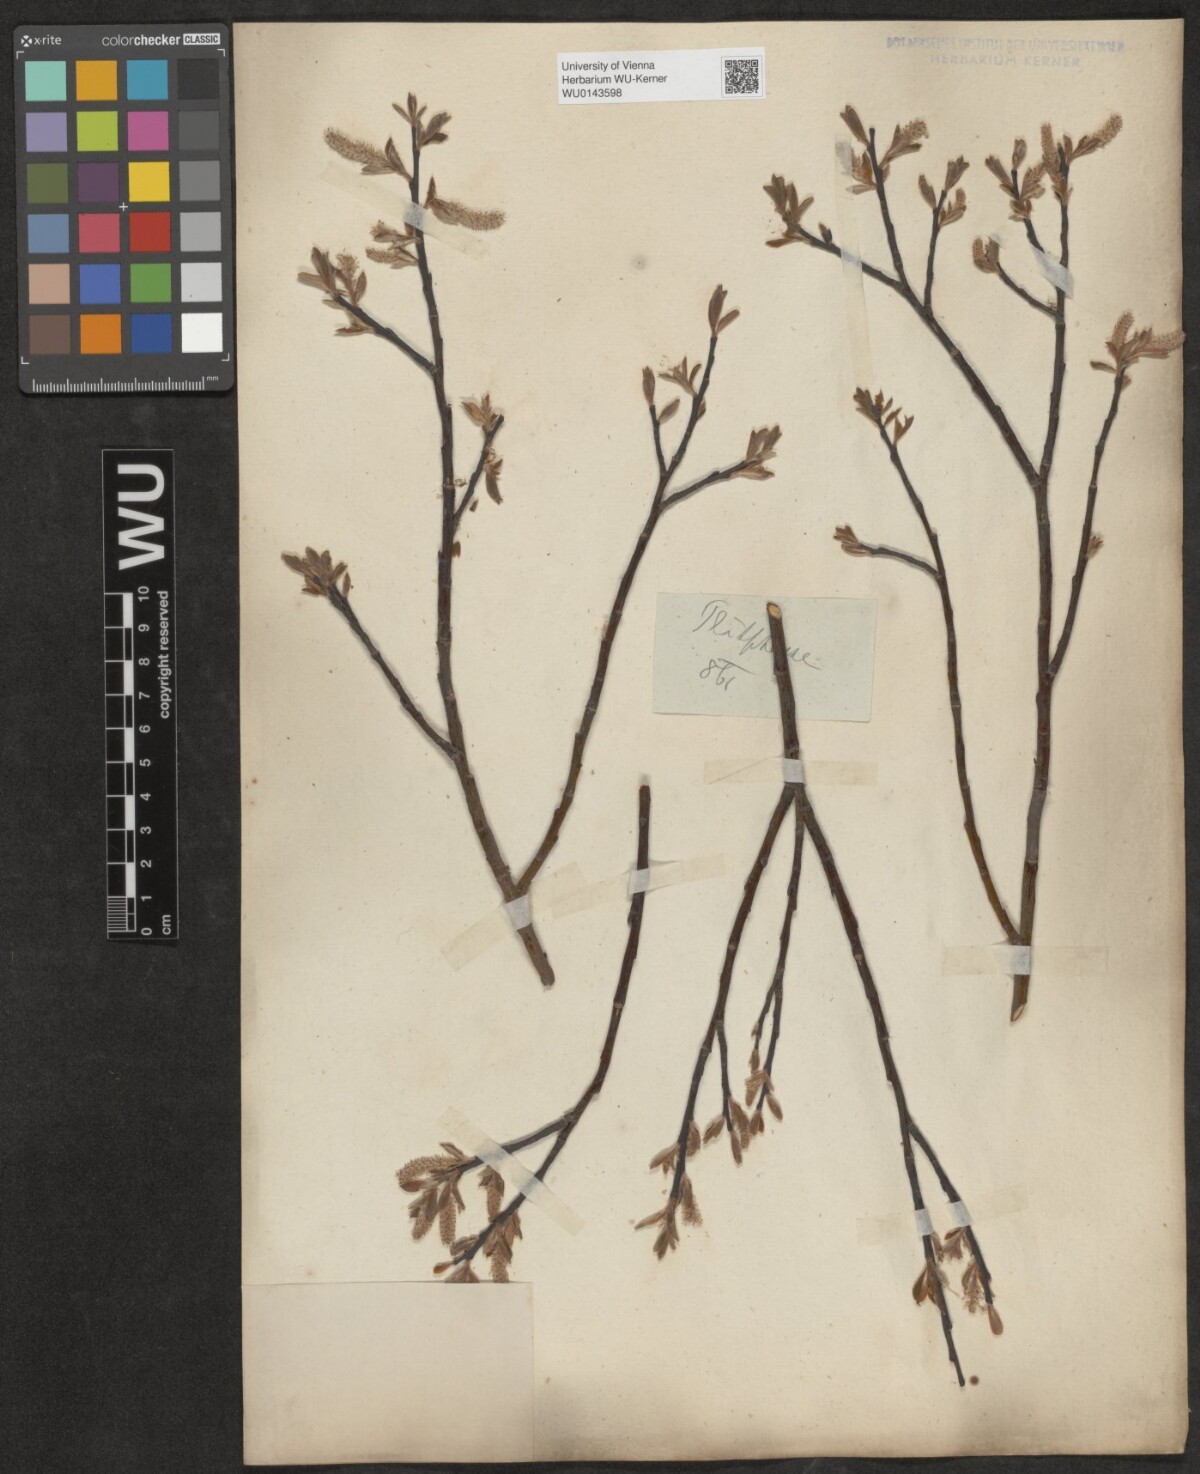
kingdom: Plantae
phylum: Tracheophyta
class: Magnoliopsida
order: Malpighiales
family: Salicaceae
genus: Salix
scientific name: Salix waldsteiniana
